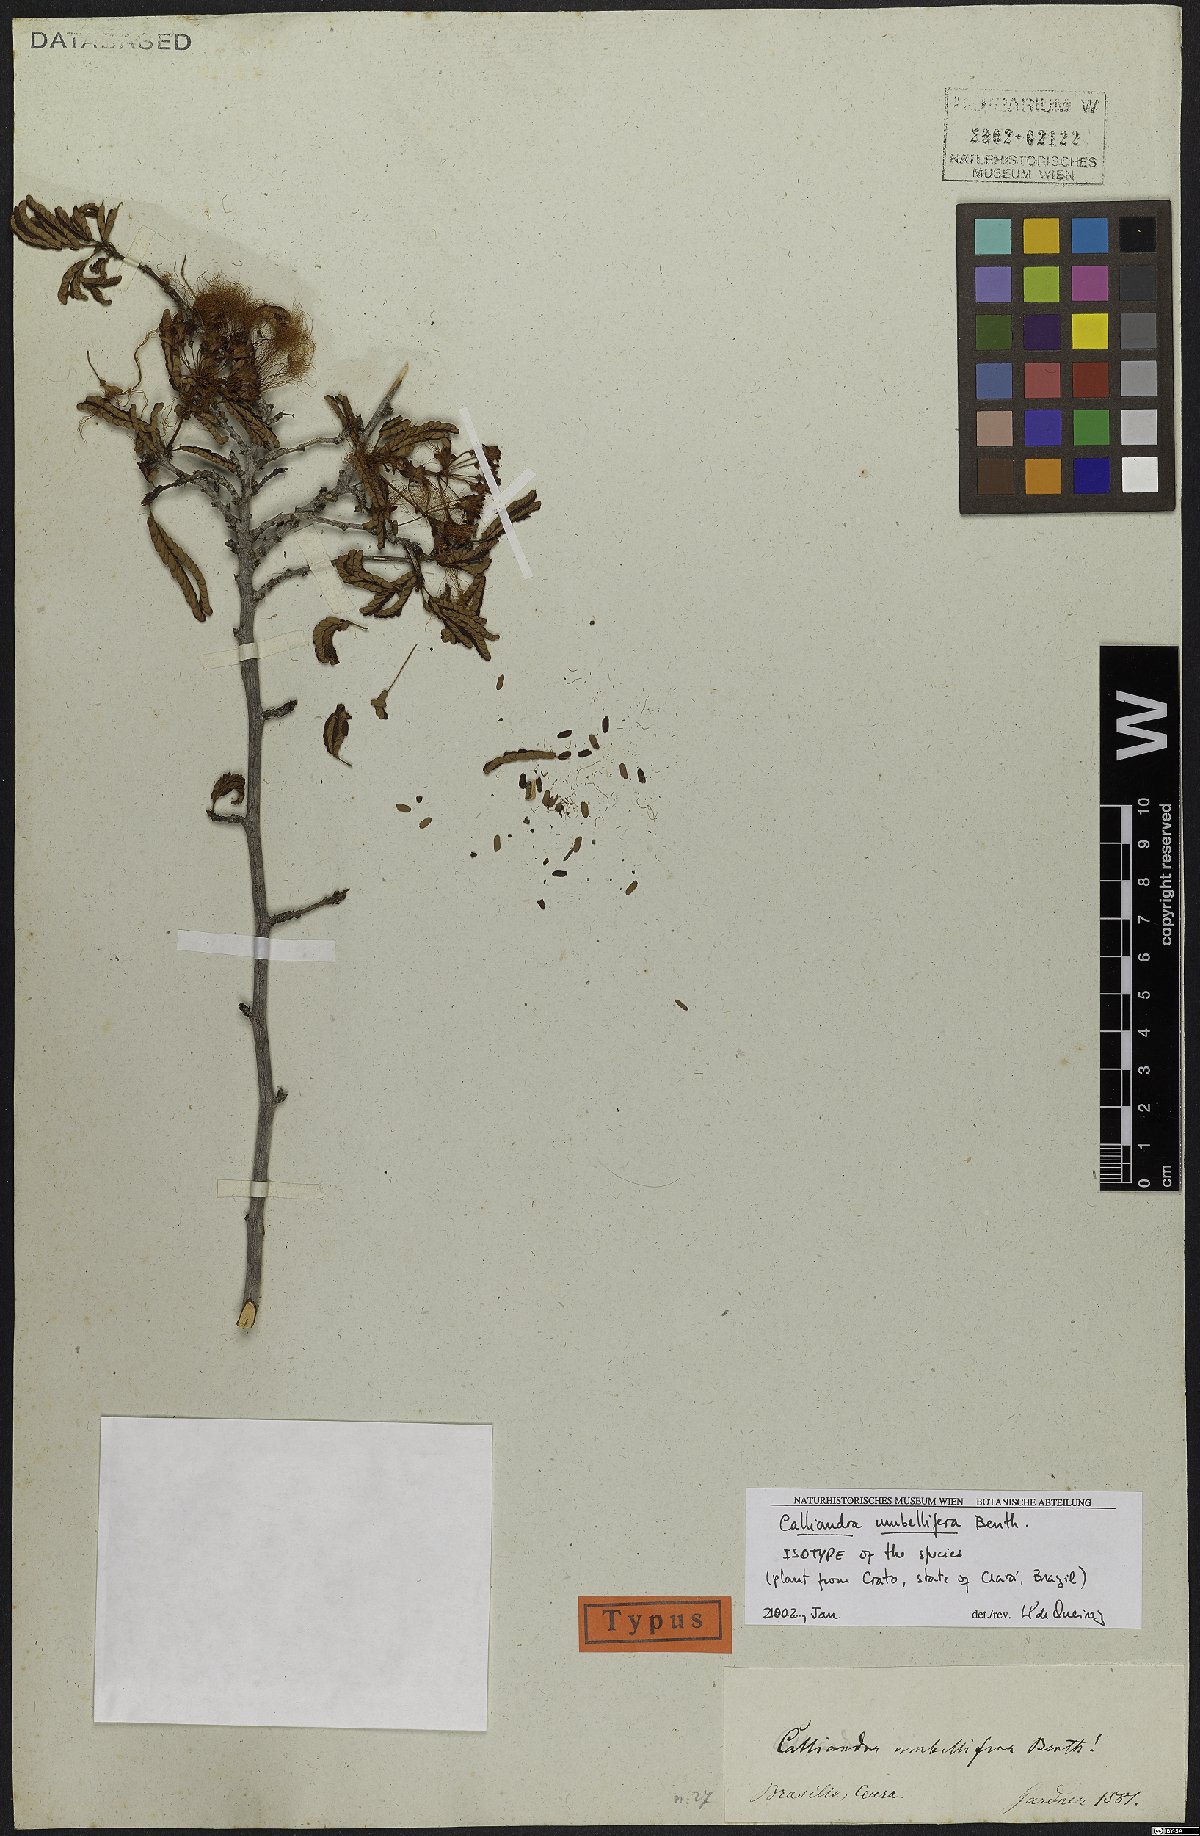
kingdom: Plantae
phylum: Tracheophyta
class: Magnoliopsida
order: Fabales
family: Fabaceae
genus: Calliandra
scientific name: Calliandra umbellifera
